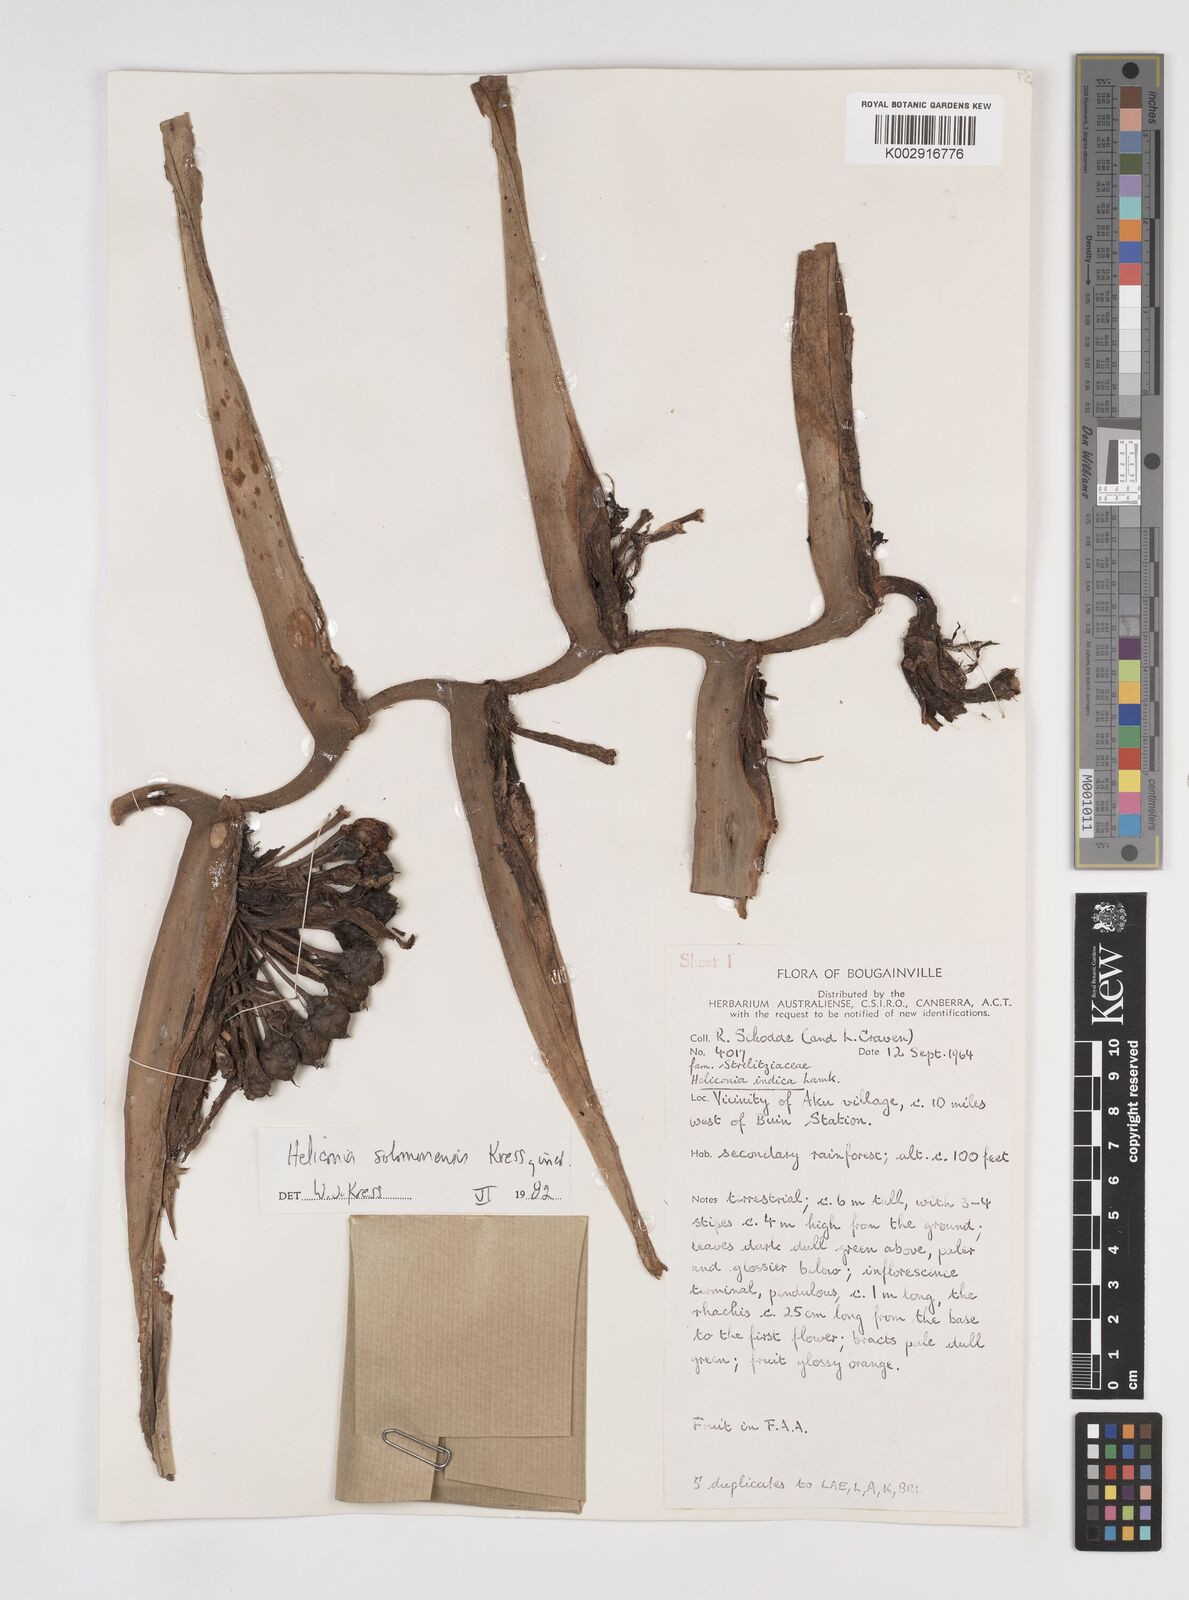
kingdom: Plantae
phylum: Tracheophyta
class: Liliopsida
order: Zingiberales
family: Heliconiaceae
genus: Heliconia
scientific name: Heliconia solomonensis
